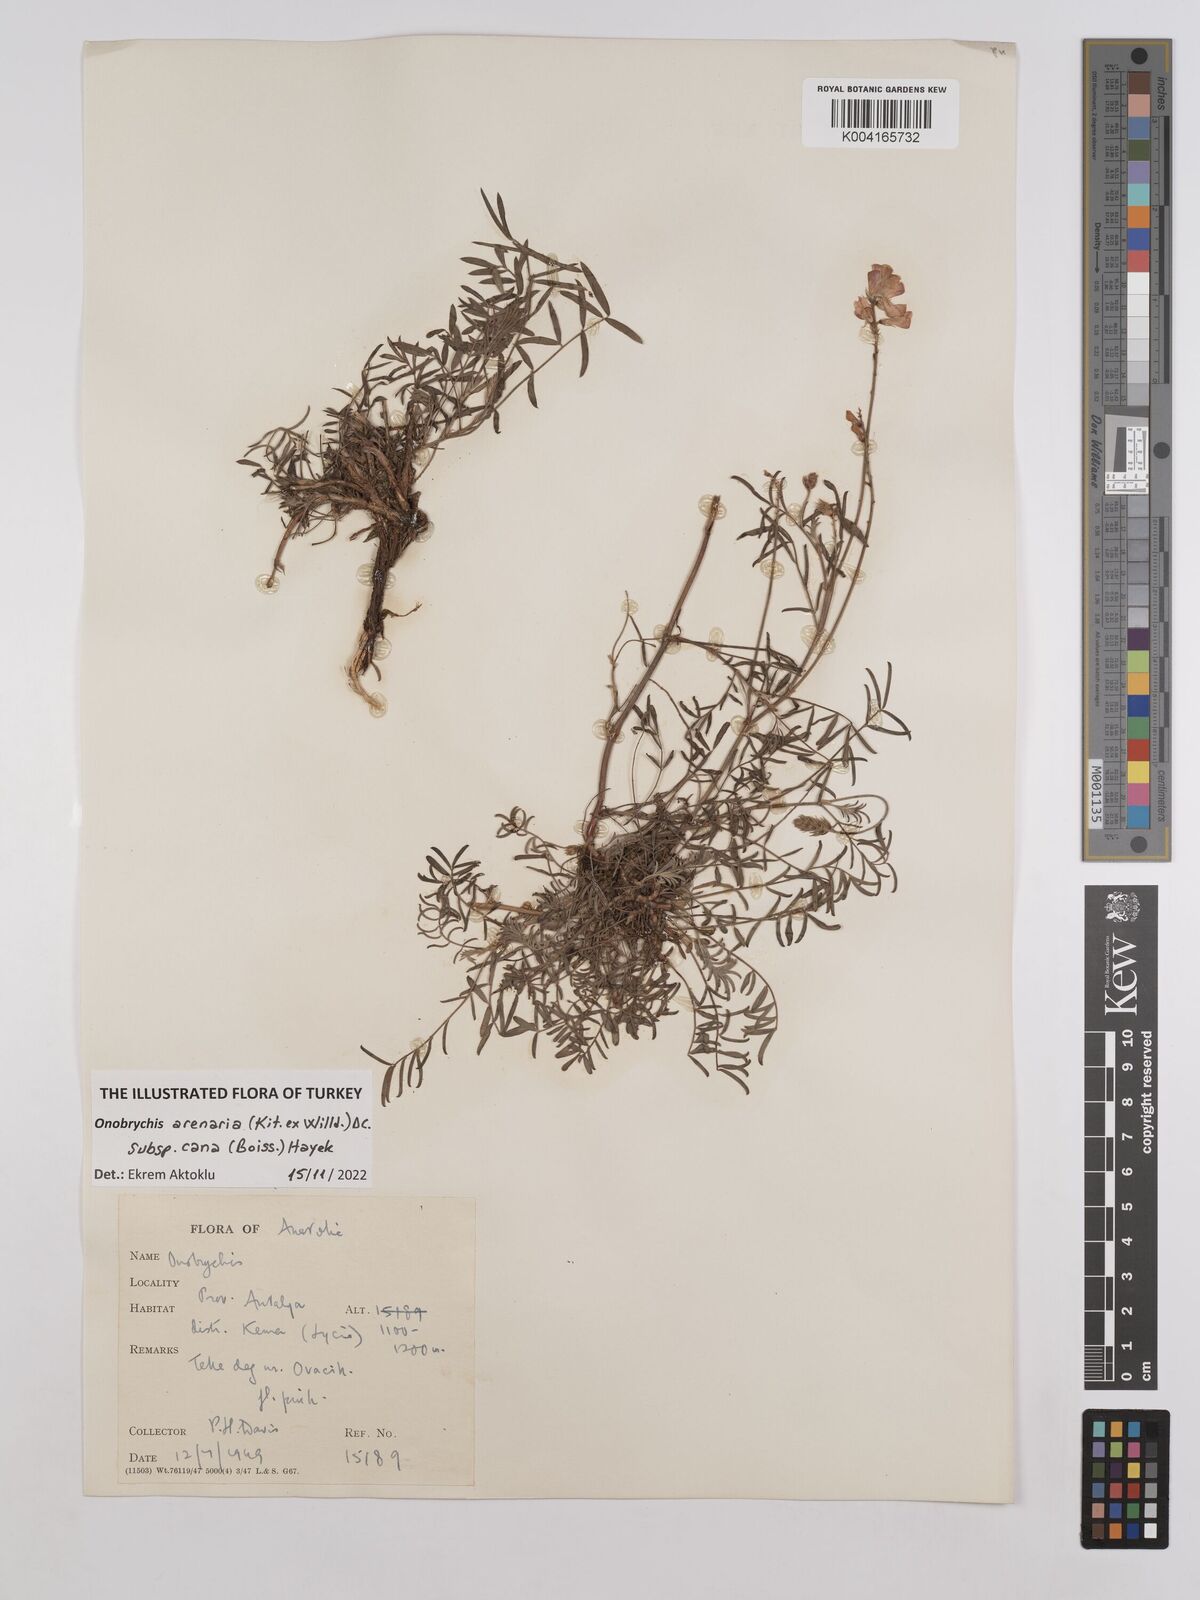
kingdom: Plantae
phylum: Tracheophyta
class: Magnoliopsida
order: Fabales
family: Fabaceae
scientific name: Fabaceae
